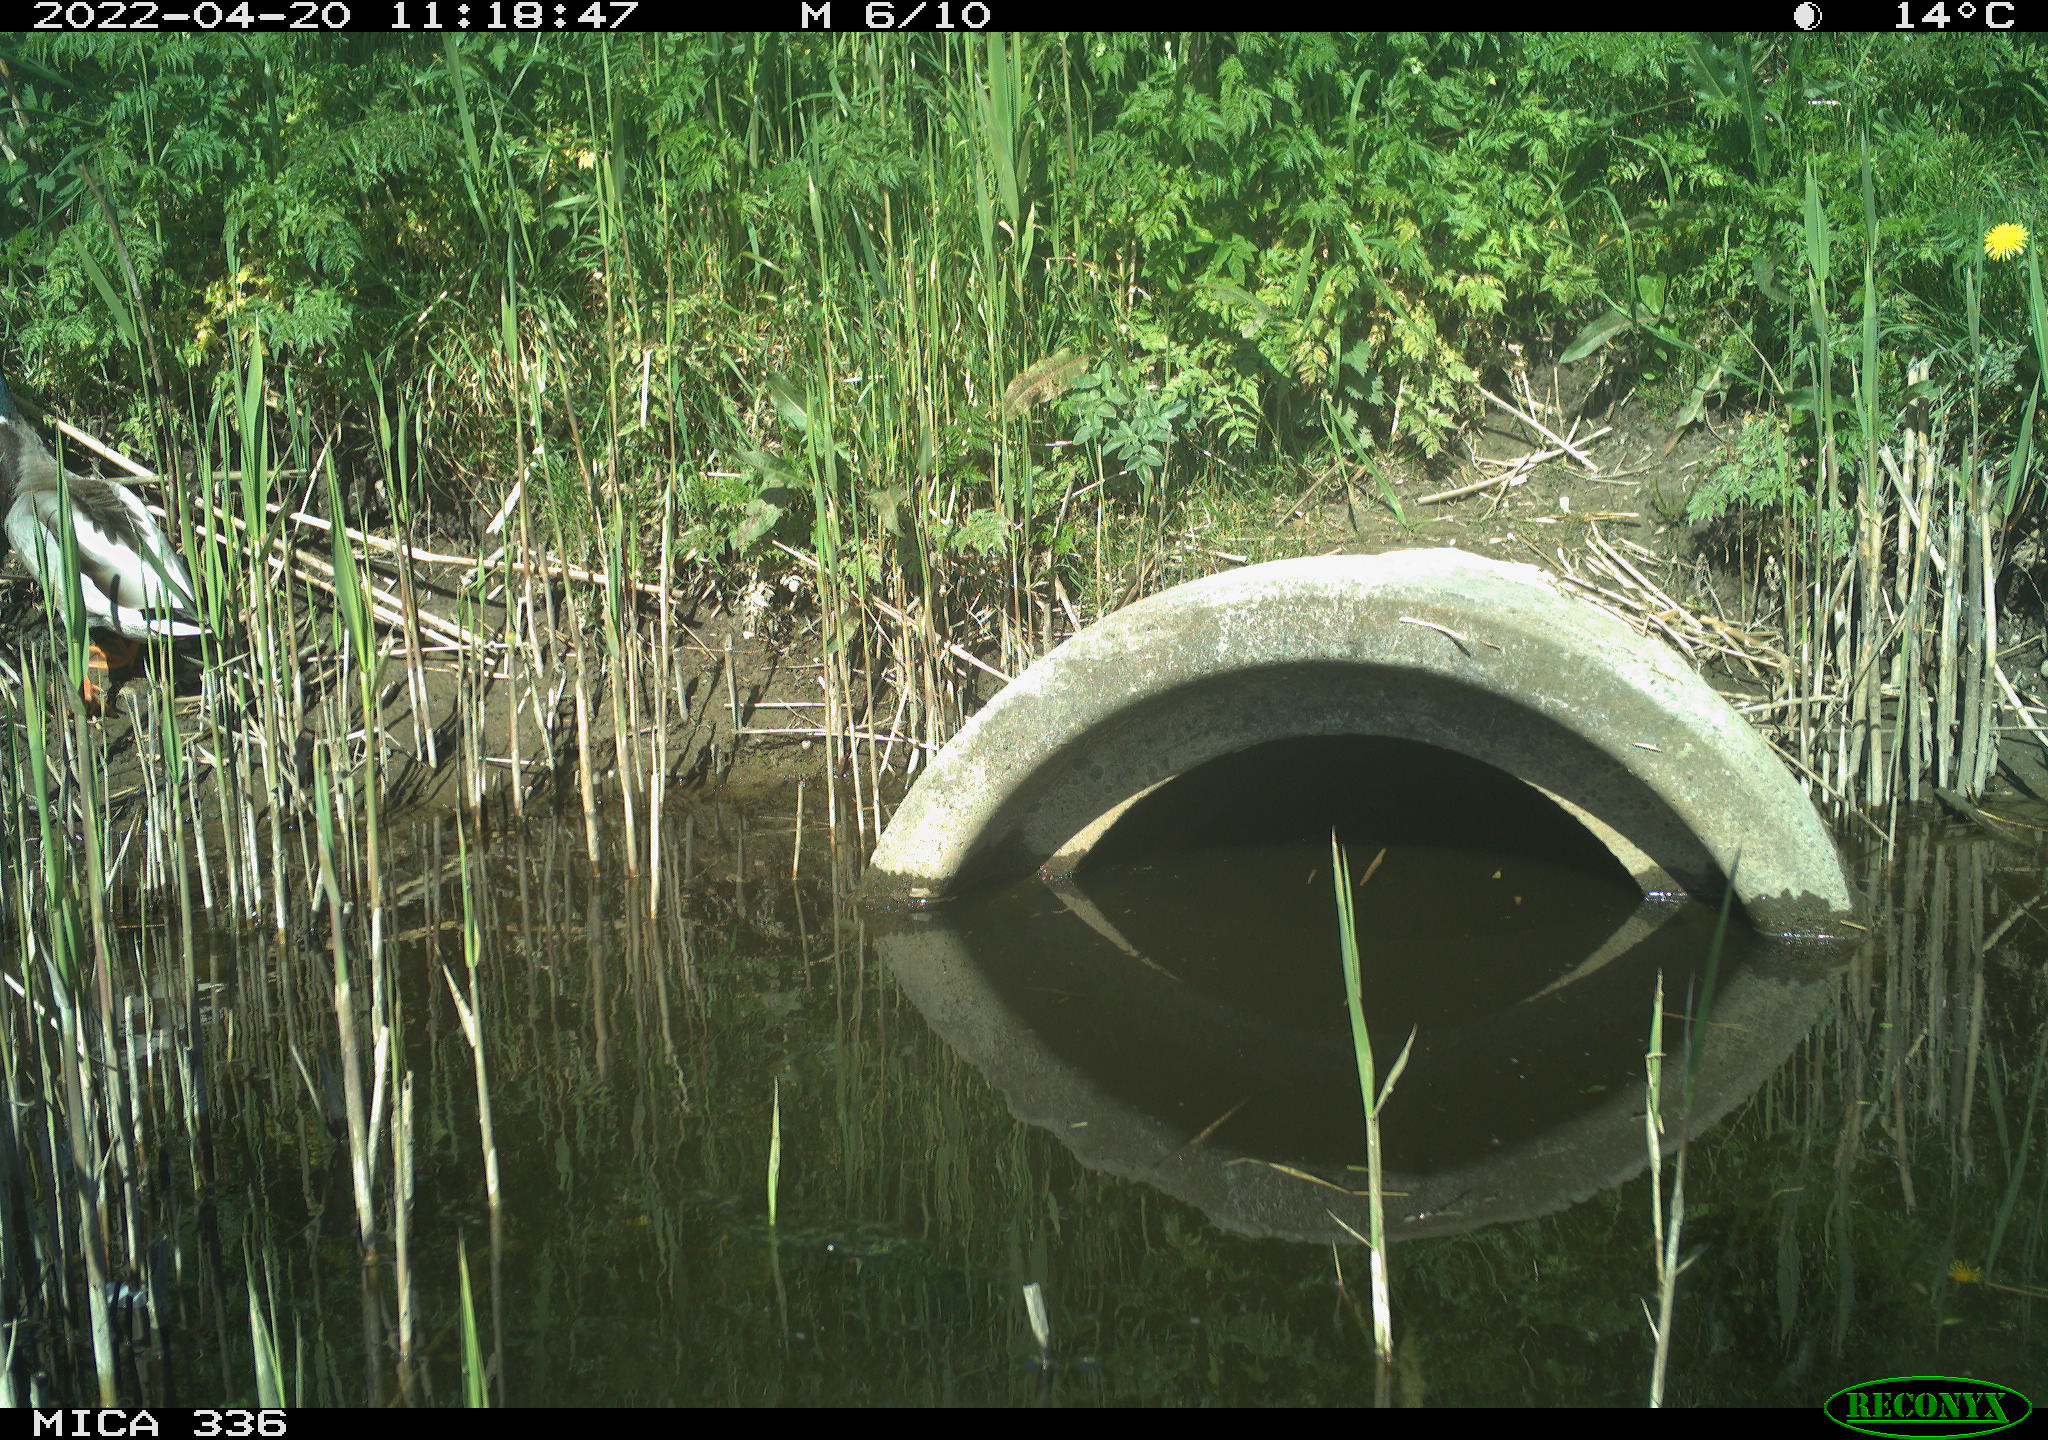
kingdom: Animalia
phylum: Chordata
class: Aves
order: Anseriformes
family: Anatidae
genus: Anas
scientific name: Anas platyrhynchos
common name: Mallard
